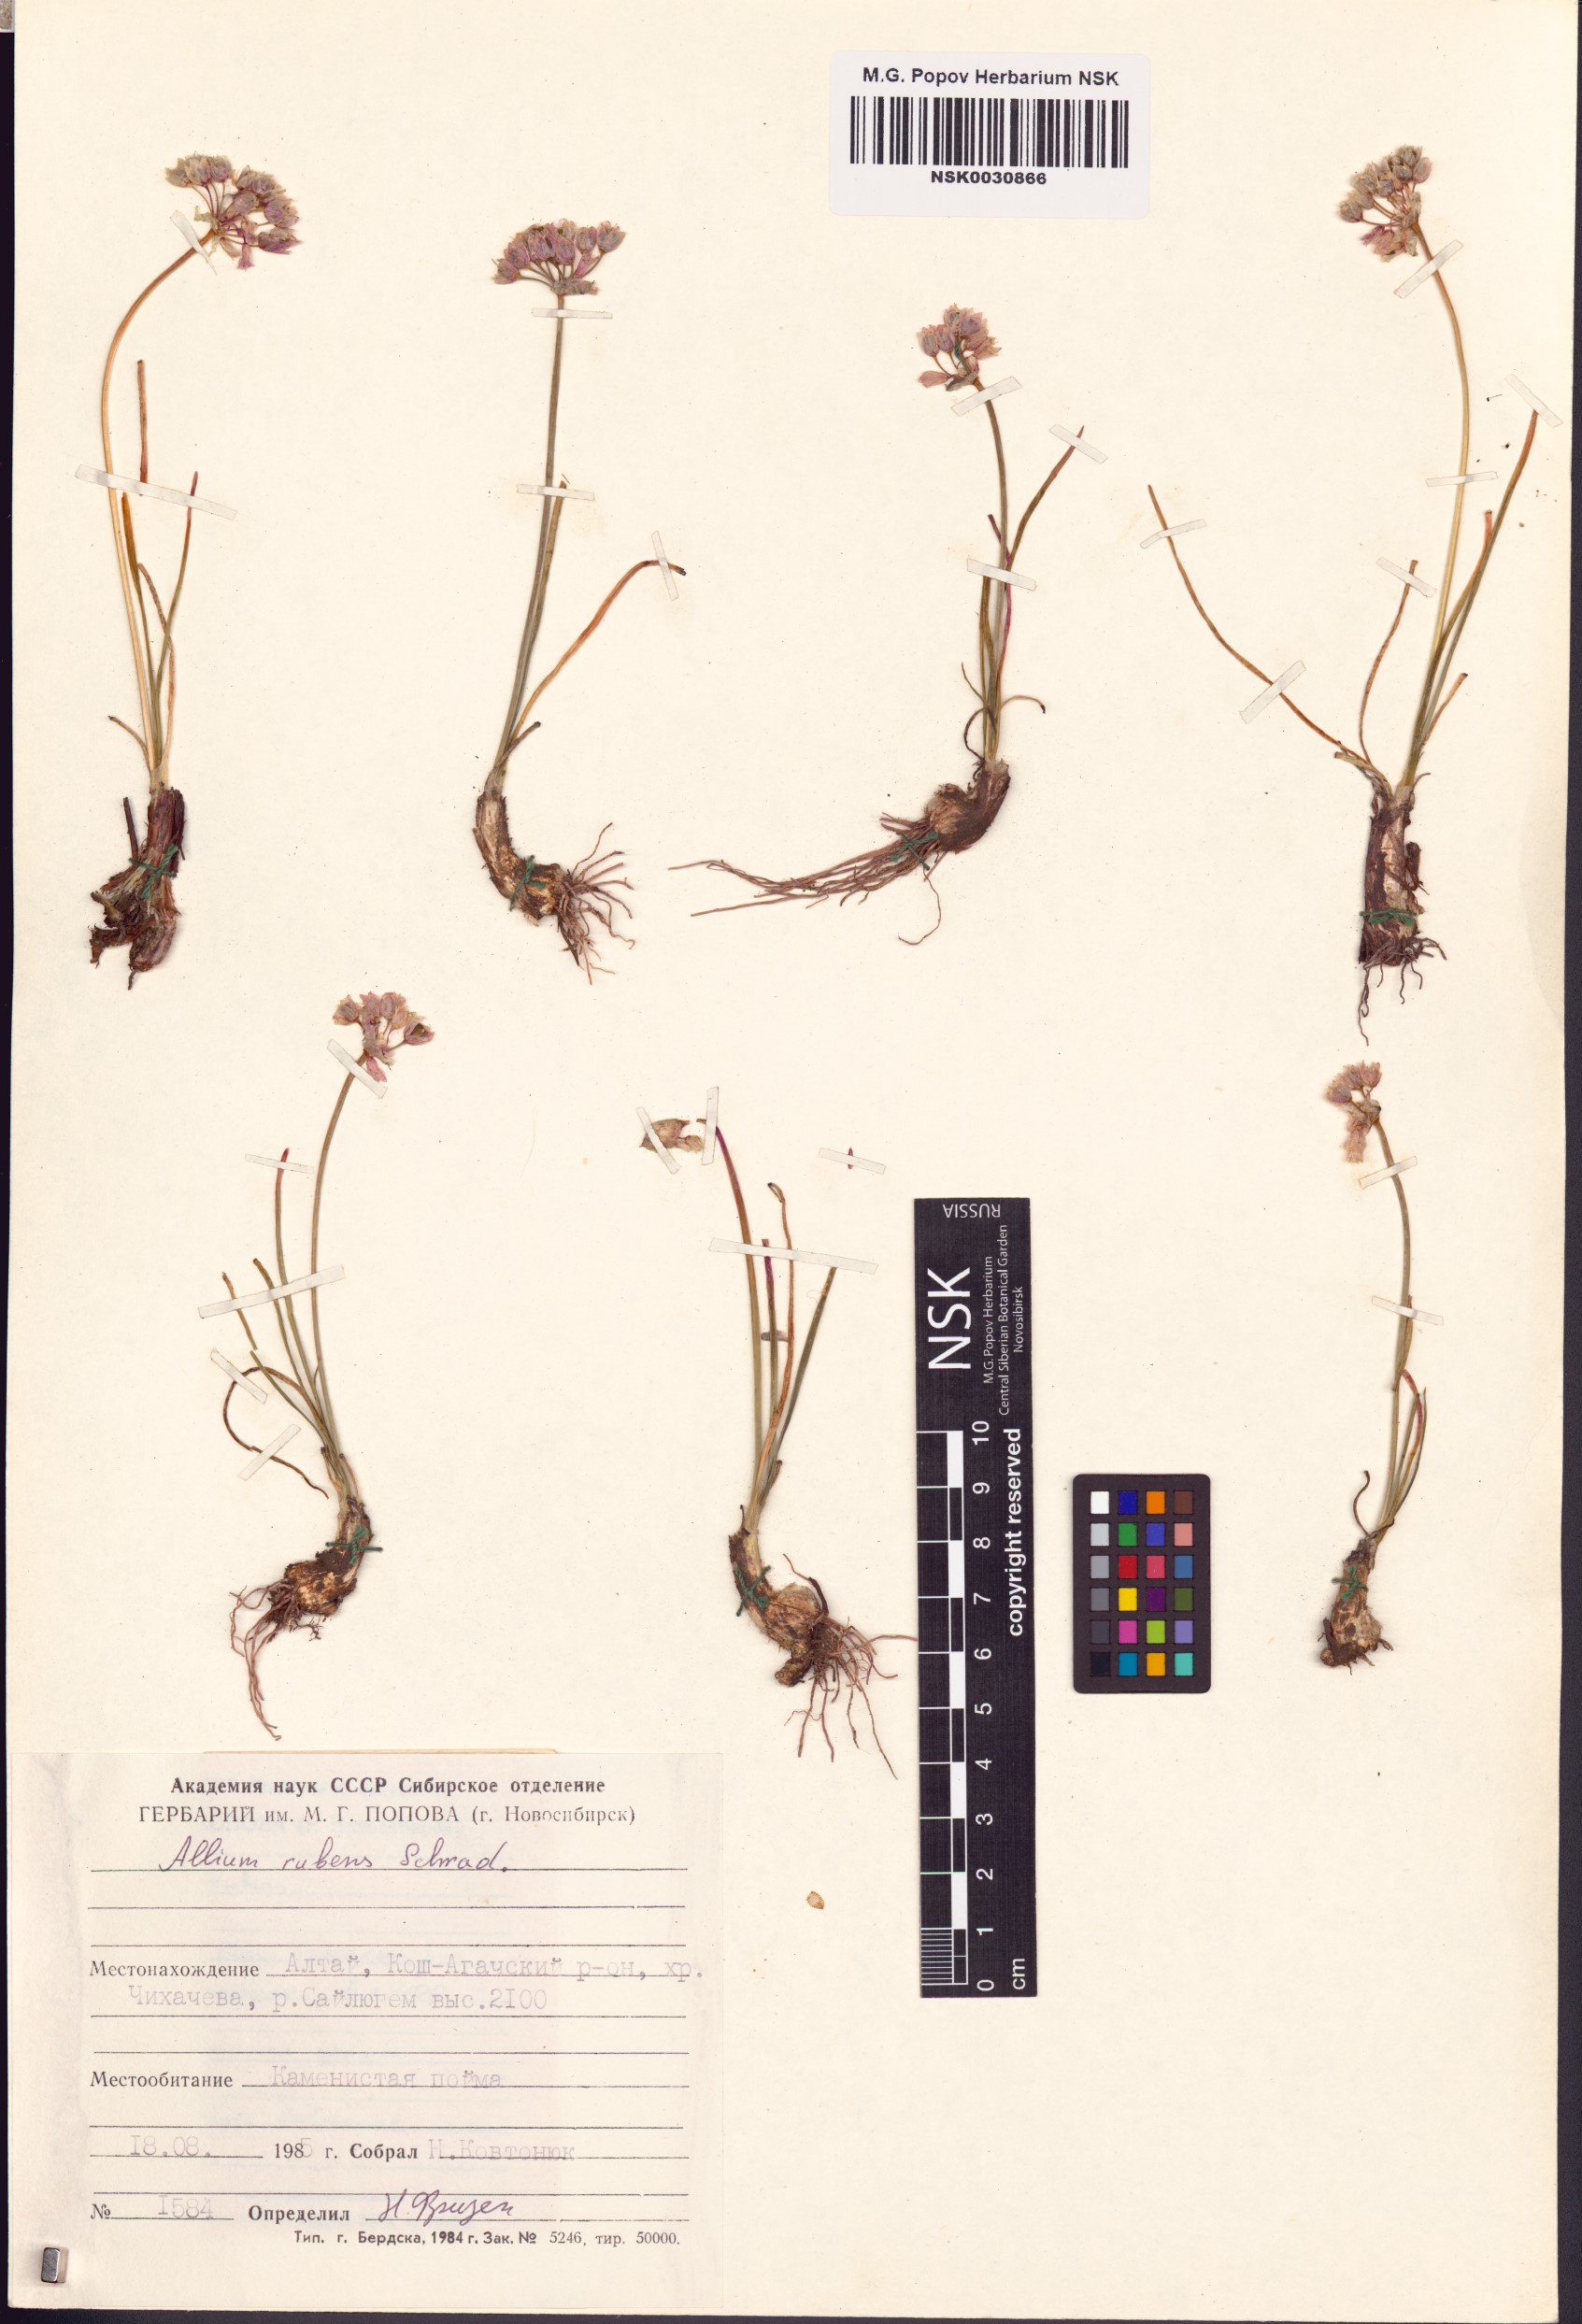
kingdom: Plantae
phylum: Tracheophyta
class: Liliopsida
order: Asparagales
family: Amaryllidaceae
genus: Allium
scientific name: Allium rubens
